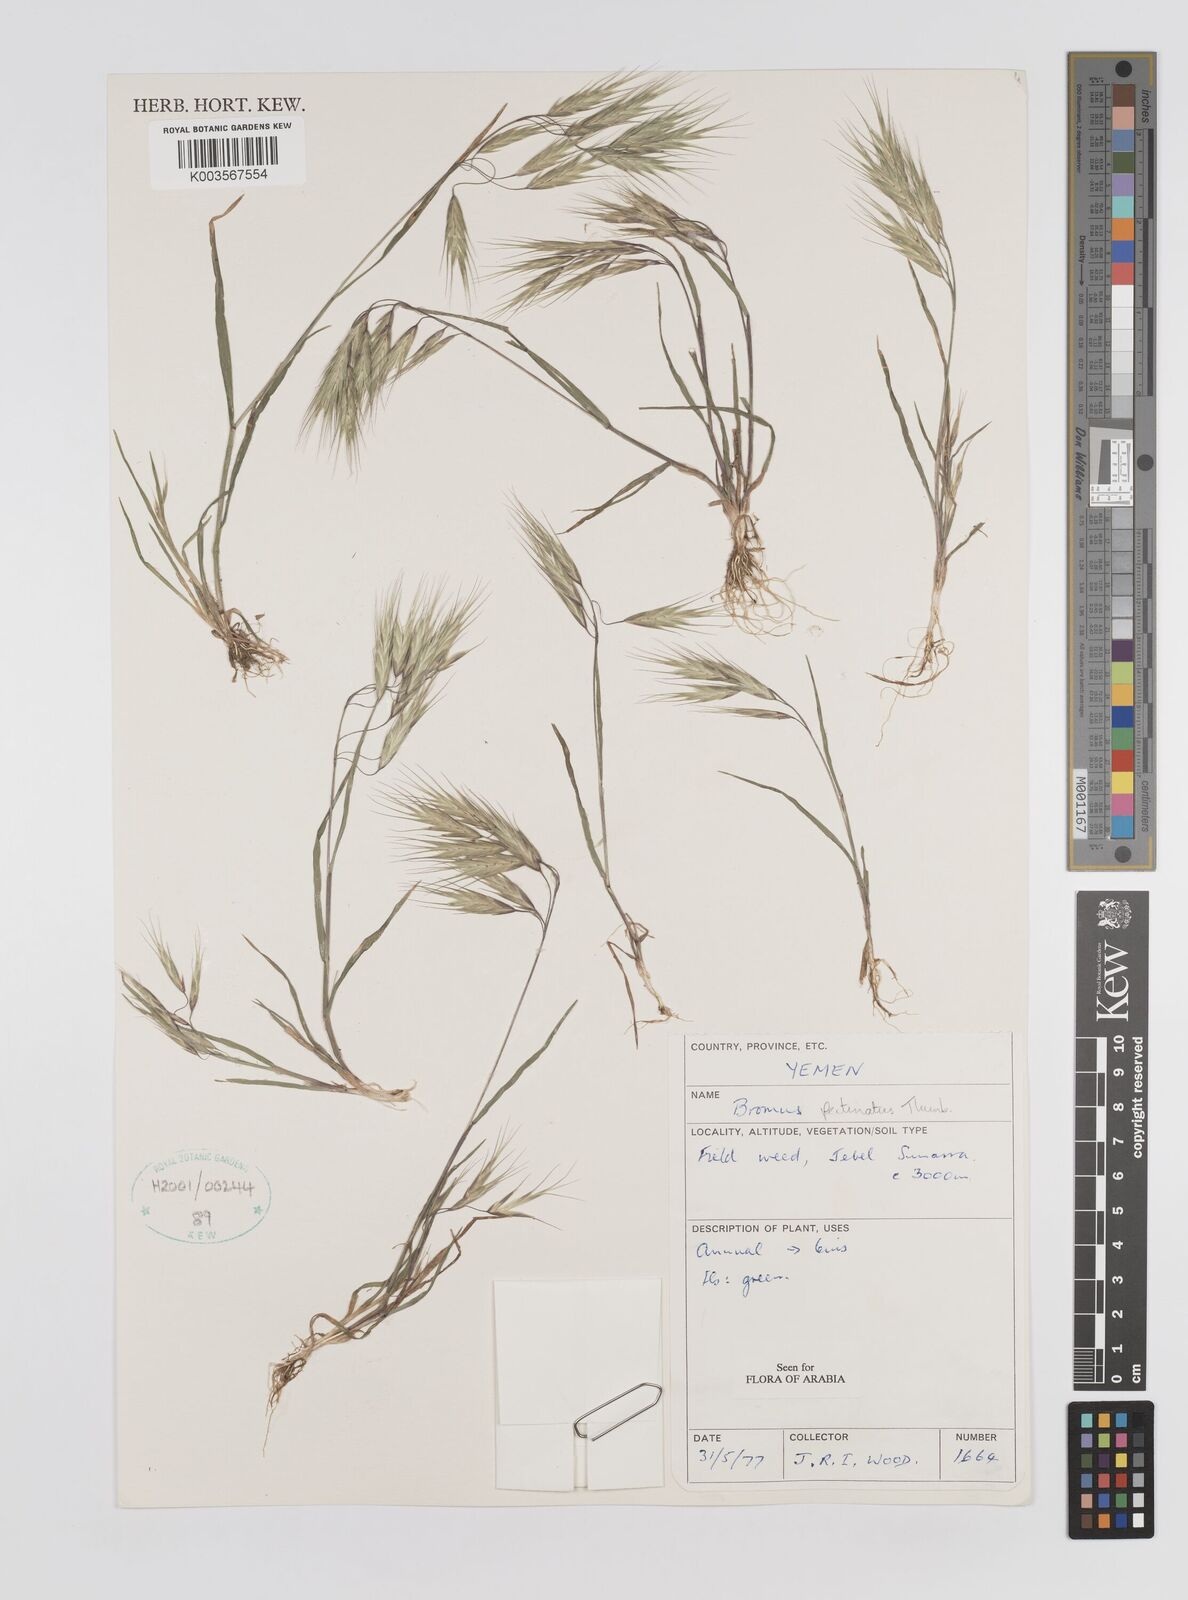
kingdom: Plantae
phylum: Tracheophyta
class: Liliopsida
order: Poales
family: Poaceae
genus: Bromus
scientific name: Bromus pectinatus
